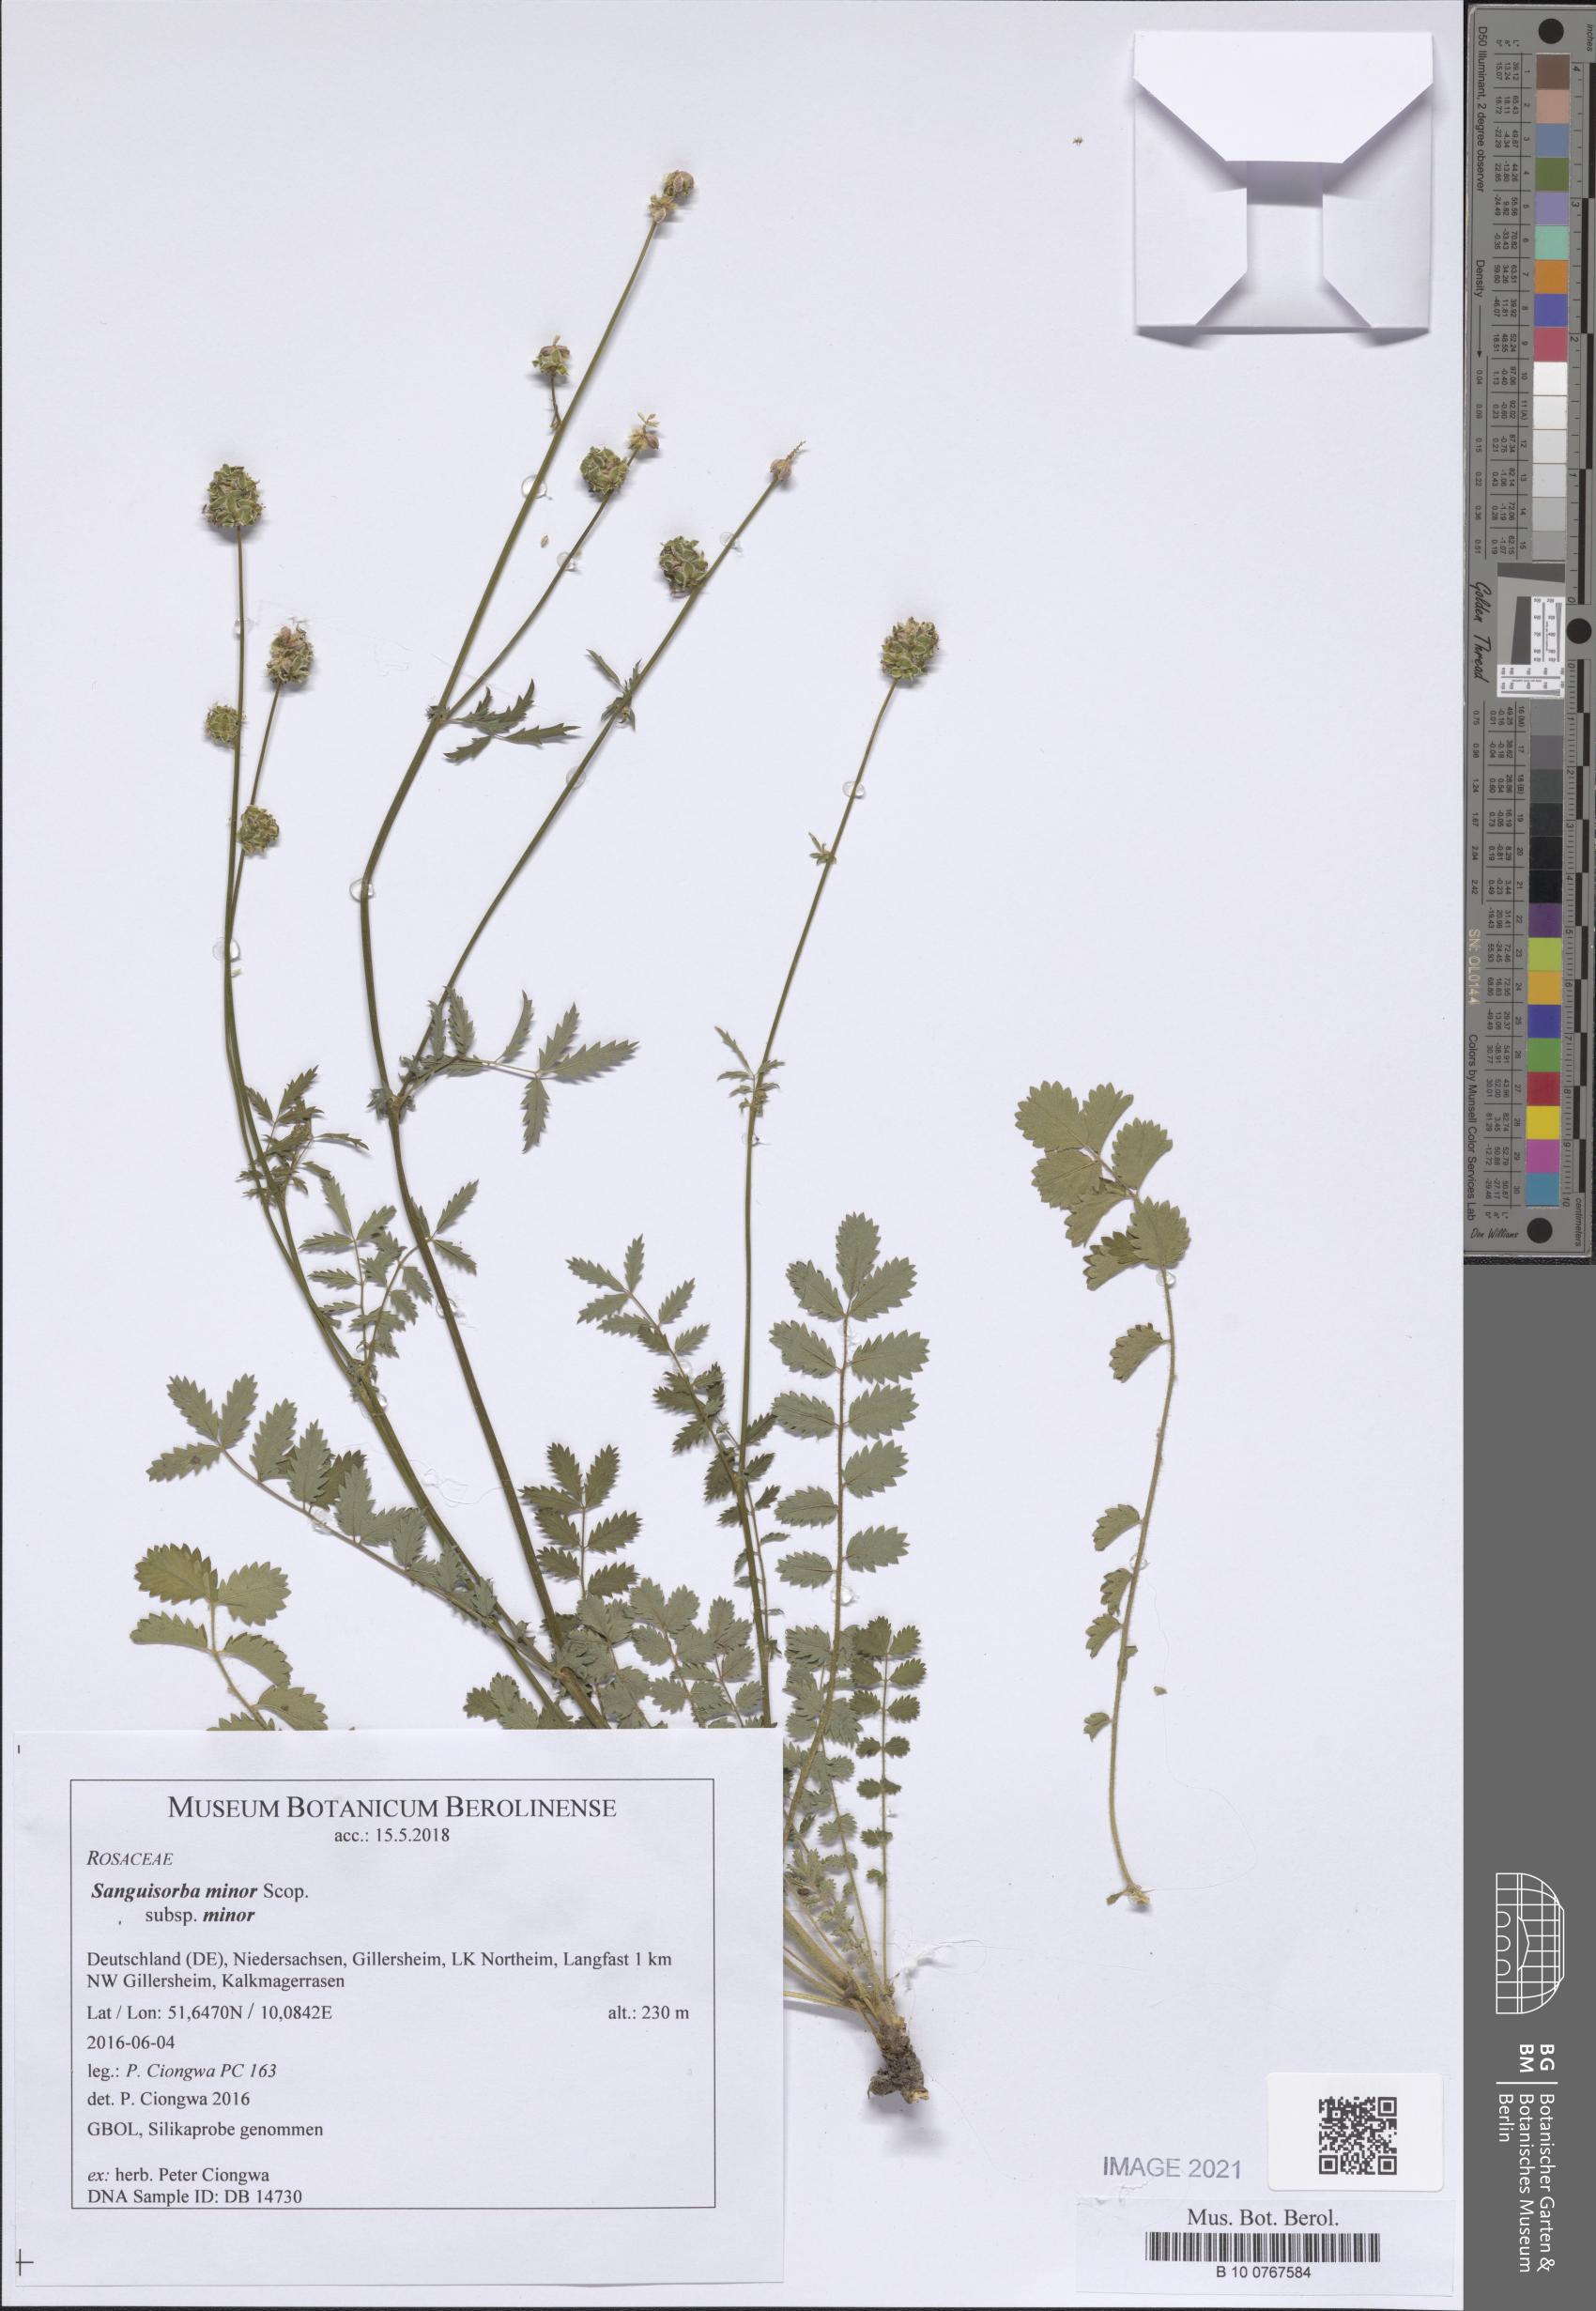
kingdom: Plantae
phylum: Tracheophyta
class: Magnoliopsida
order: Rosales
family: Rosaceae
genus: Poterium
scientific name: Poterium sanguisorba
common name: Salad burnet
